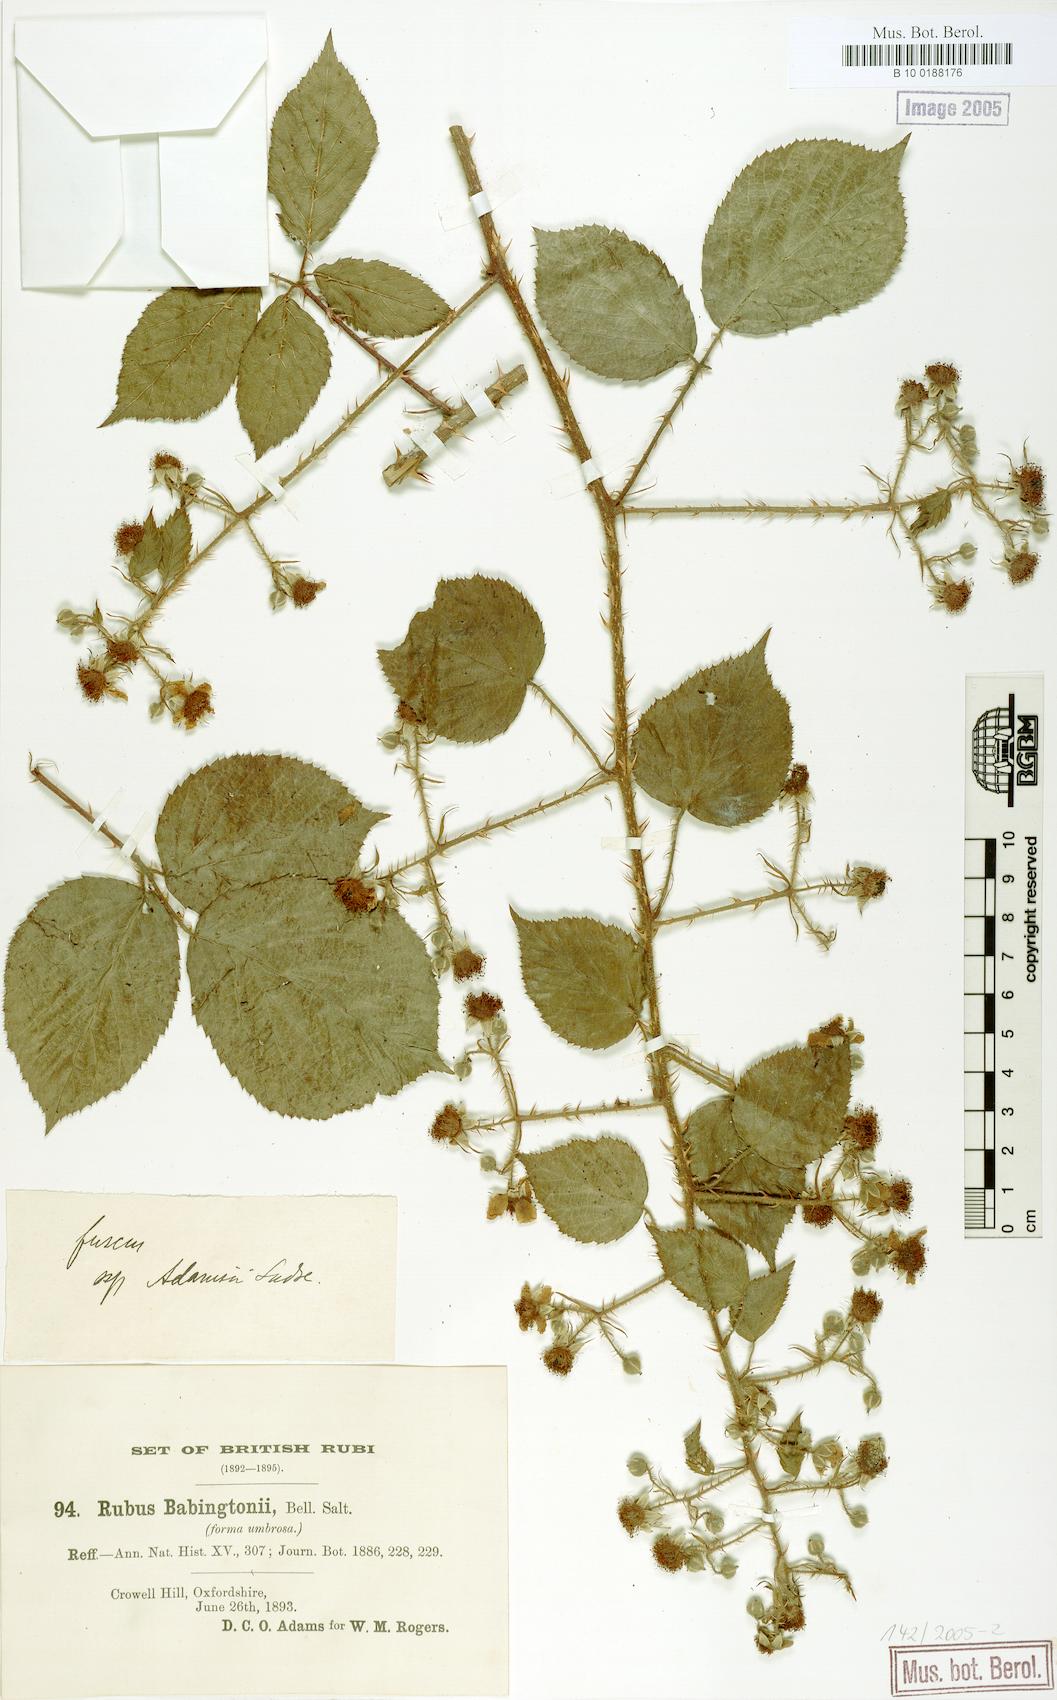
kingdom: Plantae
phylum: Tracheophyta
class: Magnoliopsida
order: Rosales
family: Rosaceae
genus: Rubus
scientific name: Rubus adamsii
